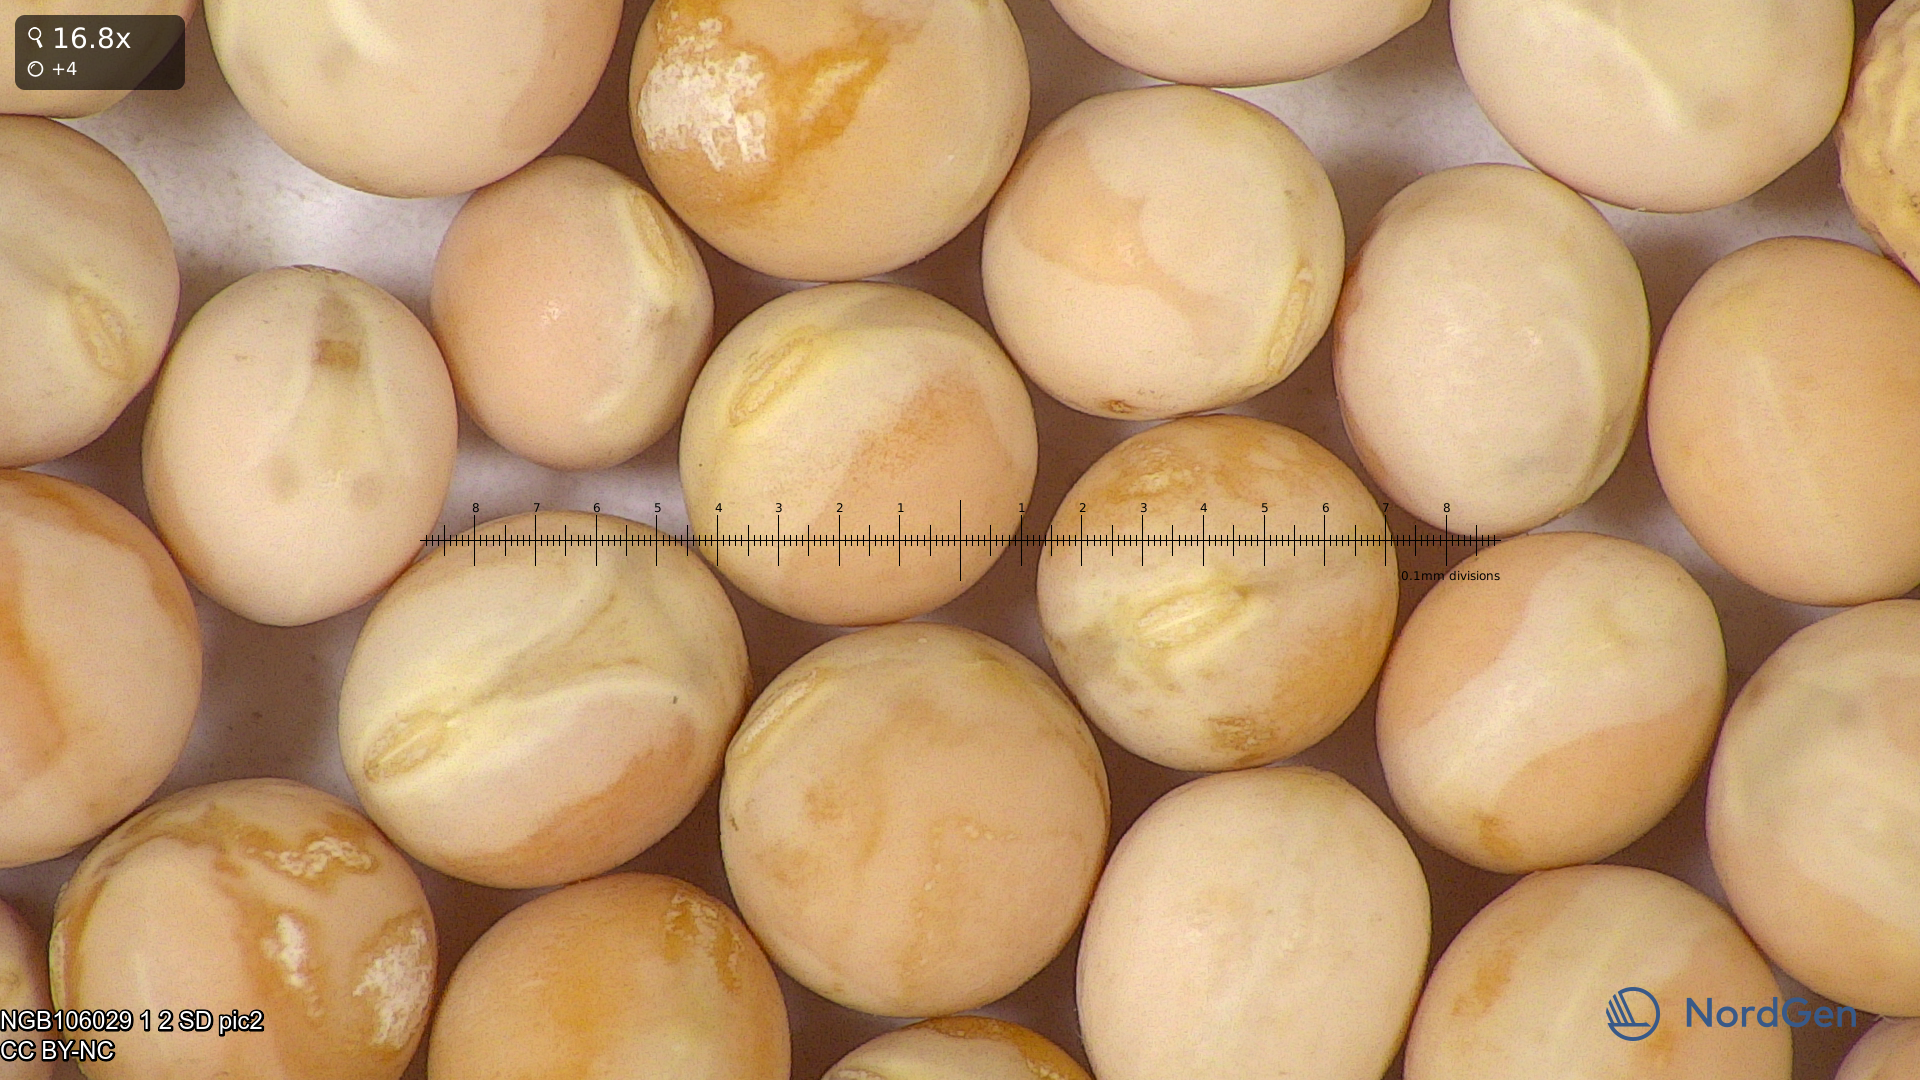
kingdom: Plantae
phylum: Tracheophyta
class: Magnoliopsida
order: Fabales
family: Fabaceae
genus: Lathyrus
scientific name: Lathyrus oleraceus
